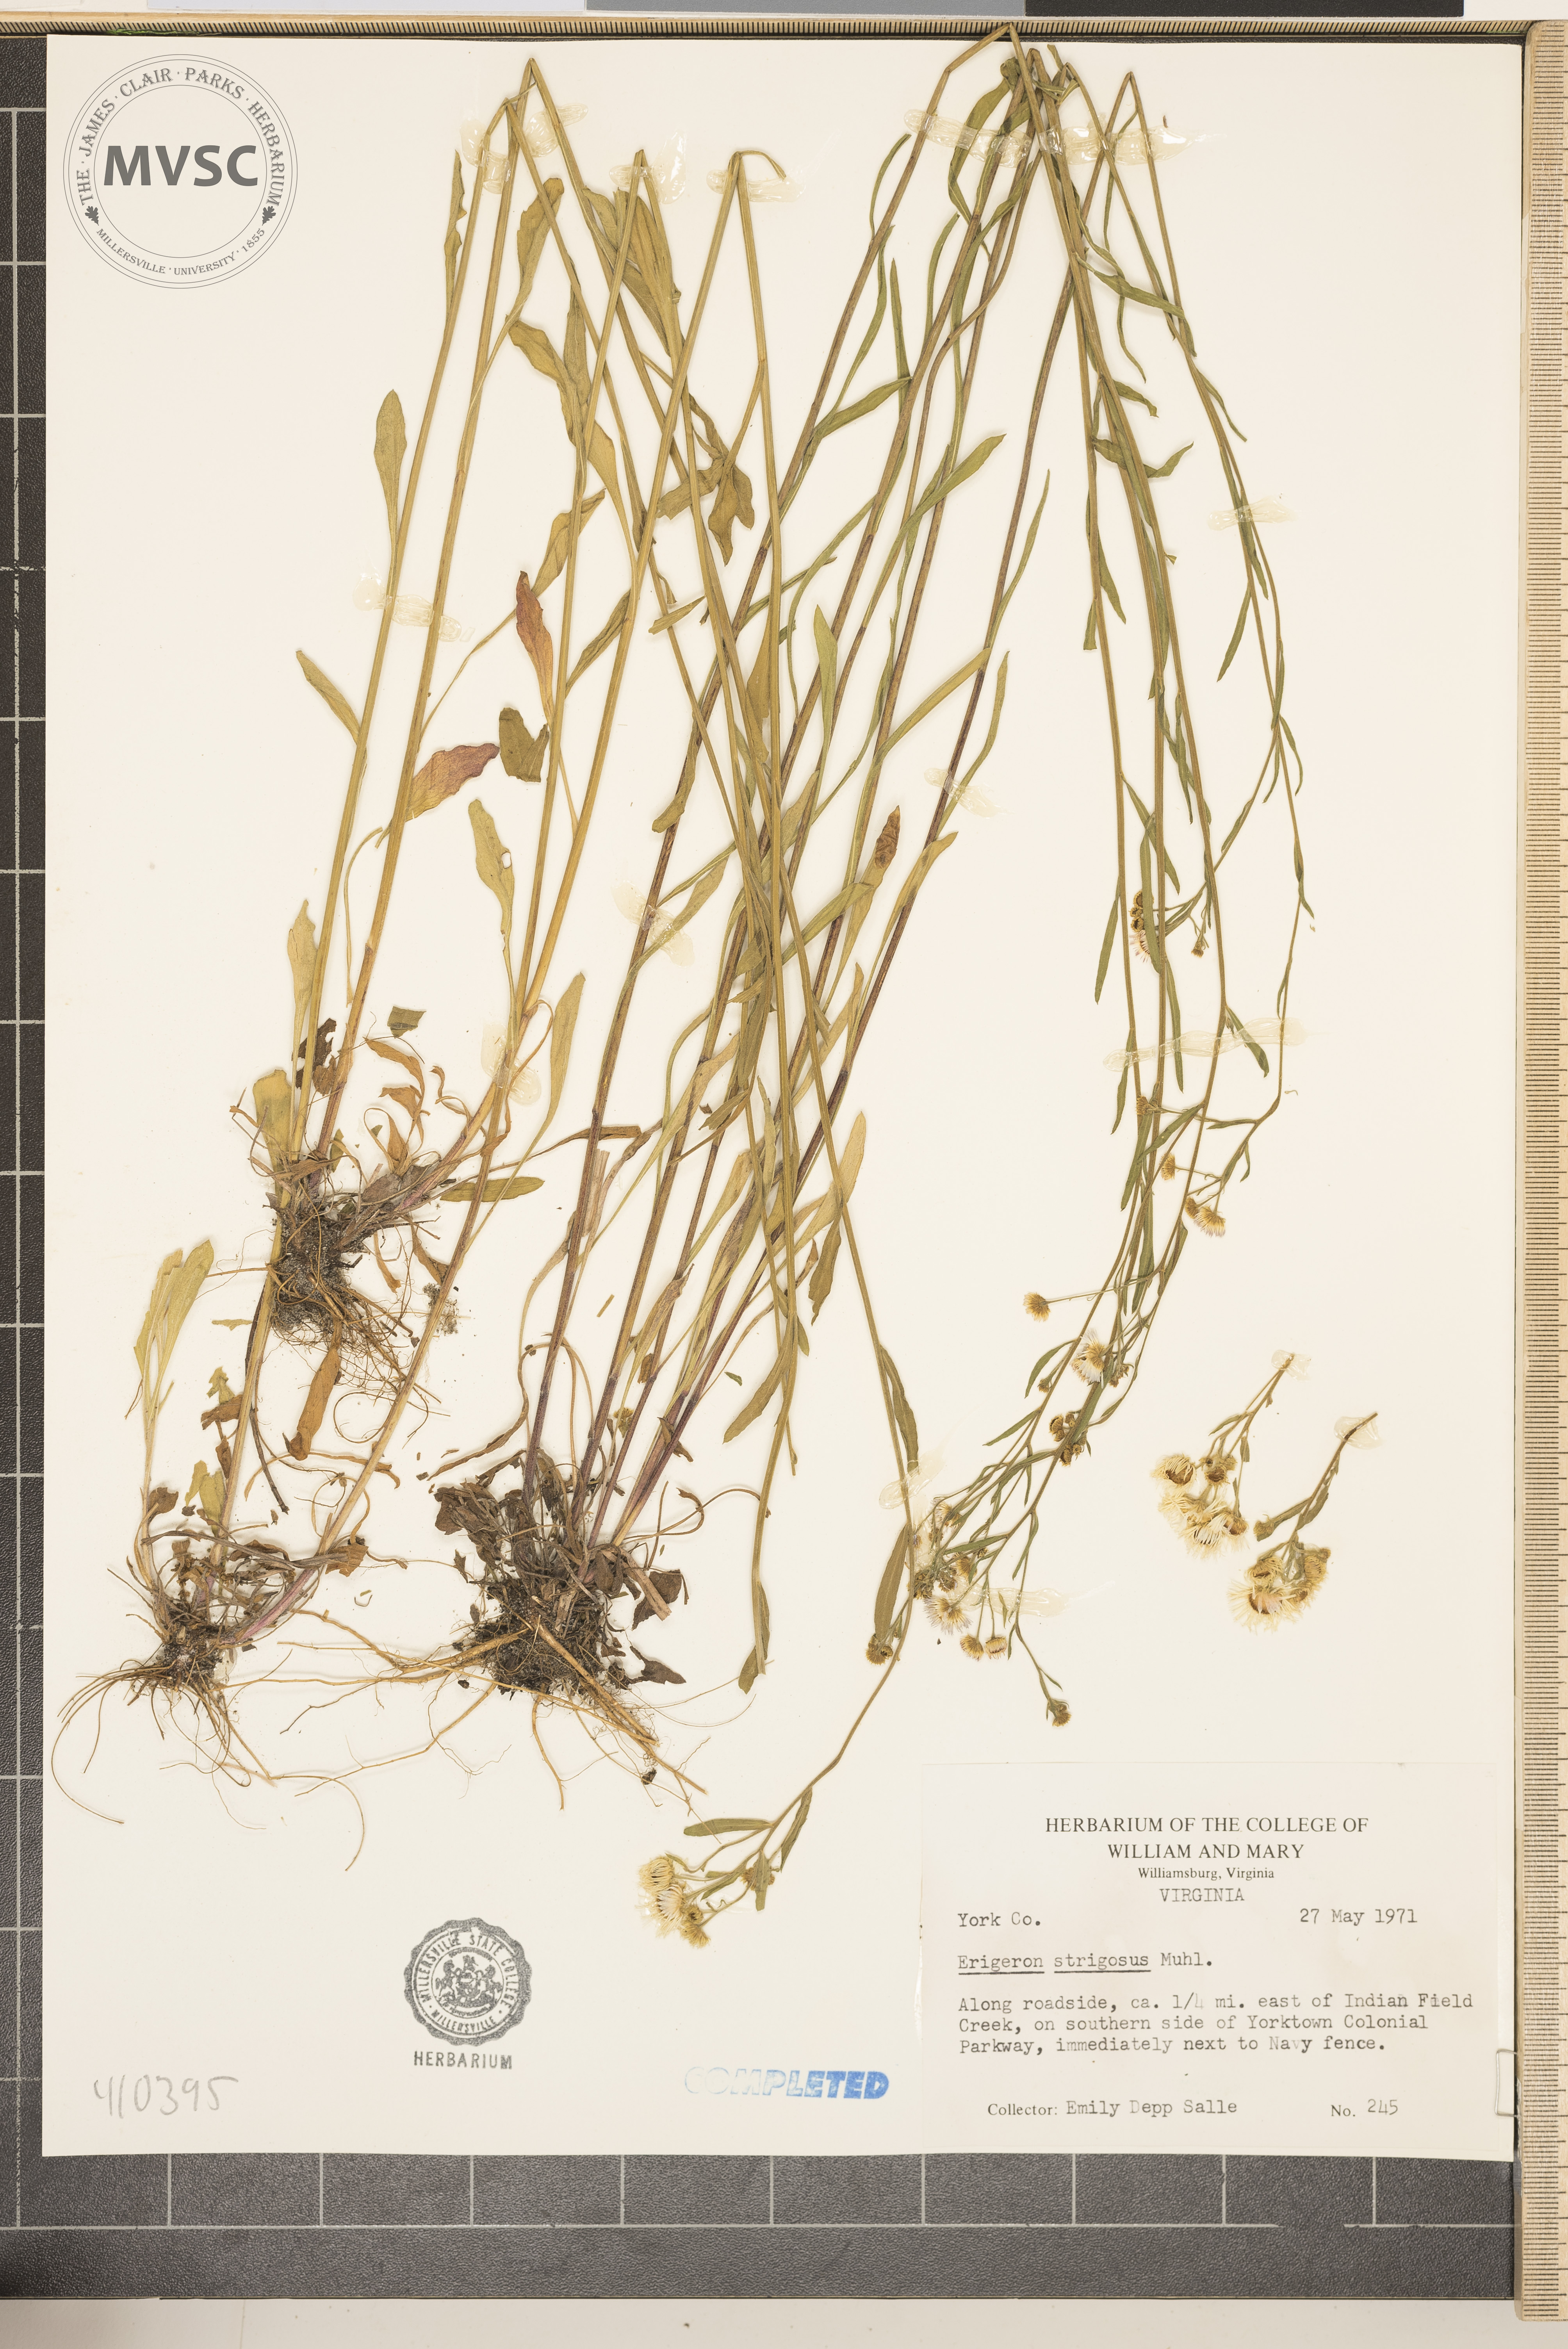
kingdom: Plantae
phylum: Tracheophyta
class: Magnoliopsida
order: Asterales
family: Asteraceae
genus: Erigeron
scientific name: Erigeron strigosus
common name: Common eastern fleabane
